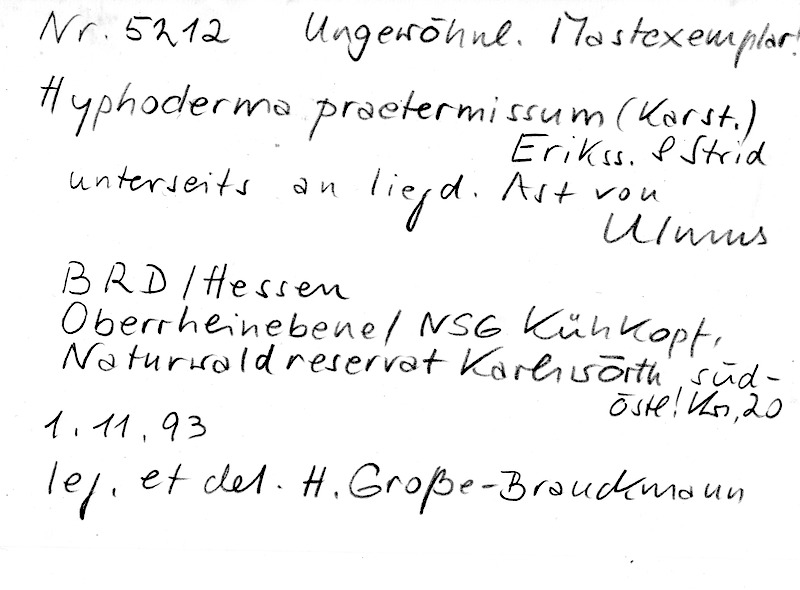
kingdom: Plantae
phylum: Tracheophyta
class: Magnoliopsida
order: Rosales
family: Ulmaceae
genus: Ulmus
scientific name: Ulmus
